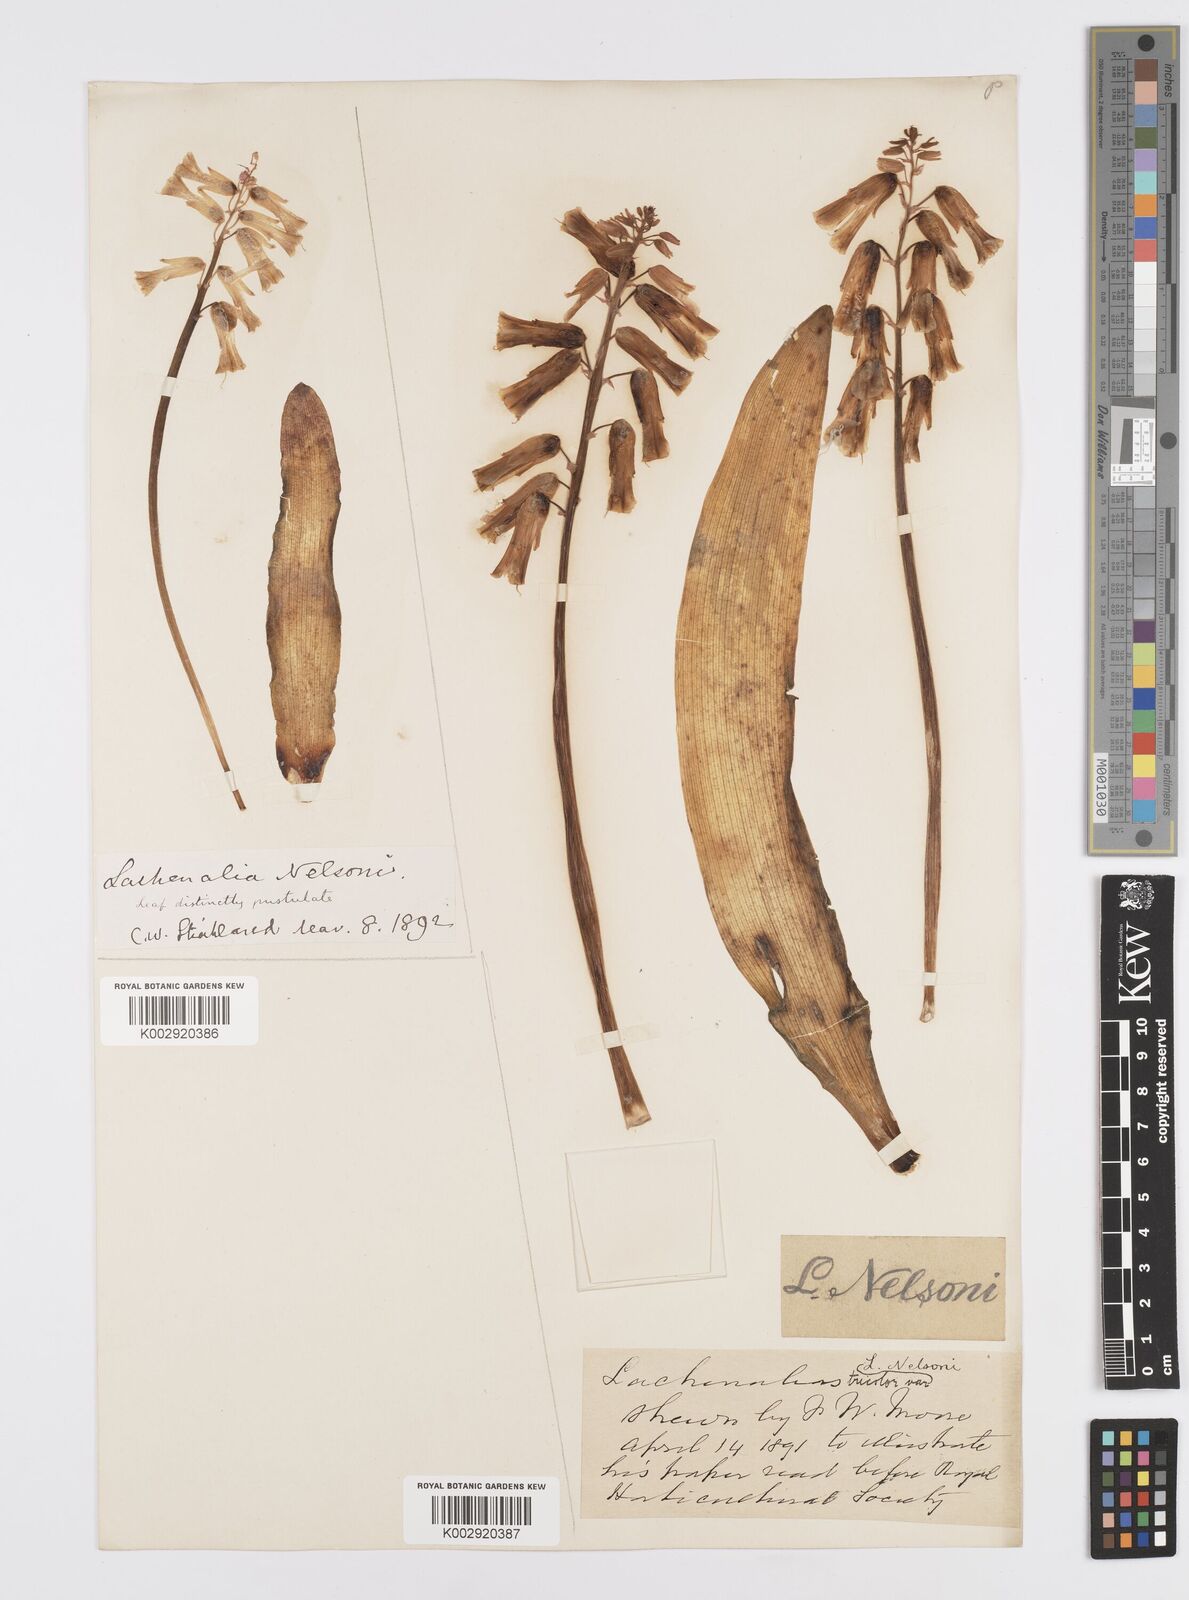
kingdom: Plantae
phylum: Tracheophyta
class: Liliopsida
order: Asparagales
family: Asparagaceae
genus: Lachenalia
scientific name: Lachenalia
